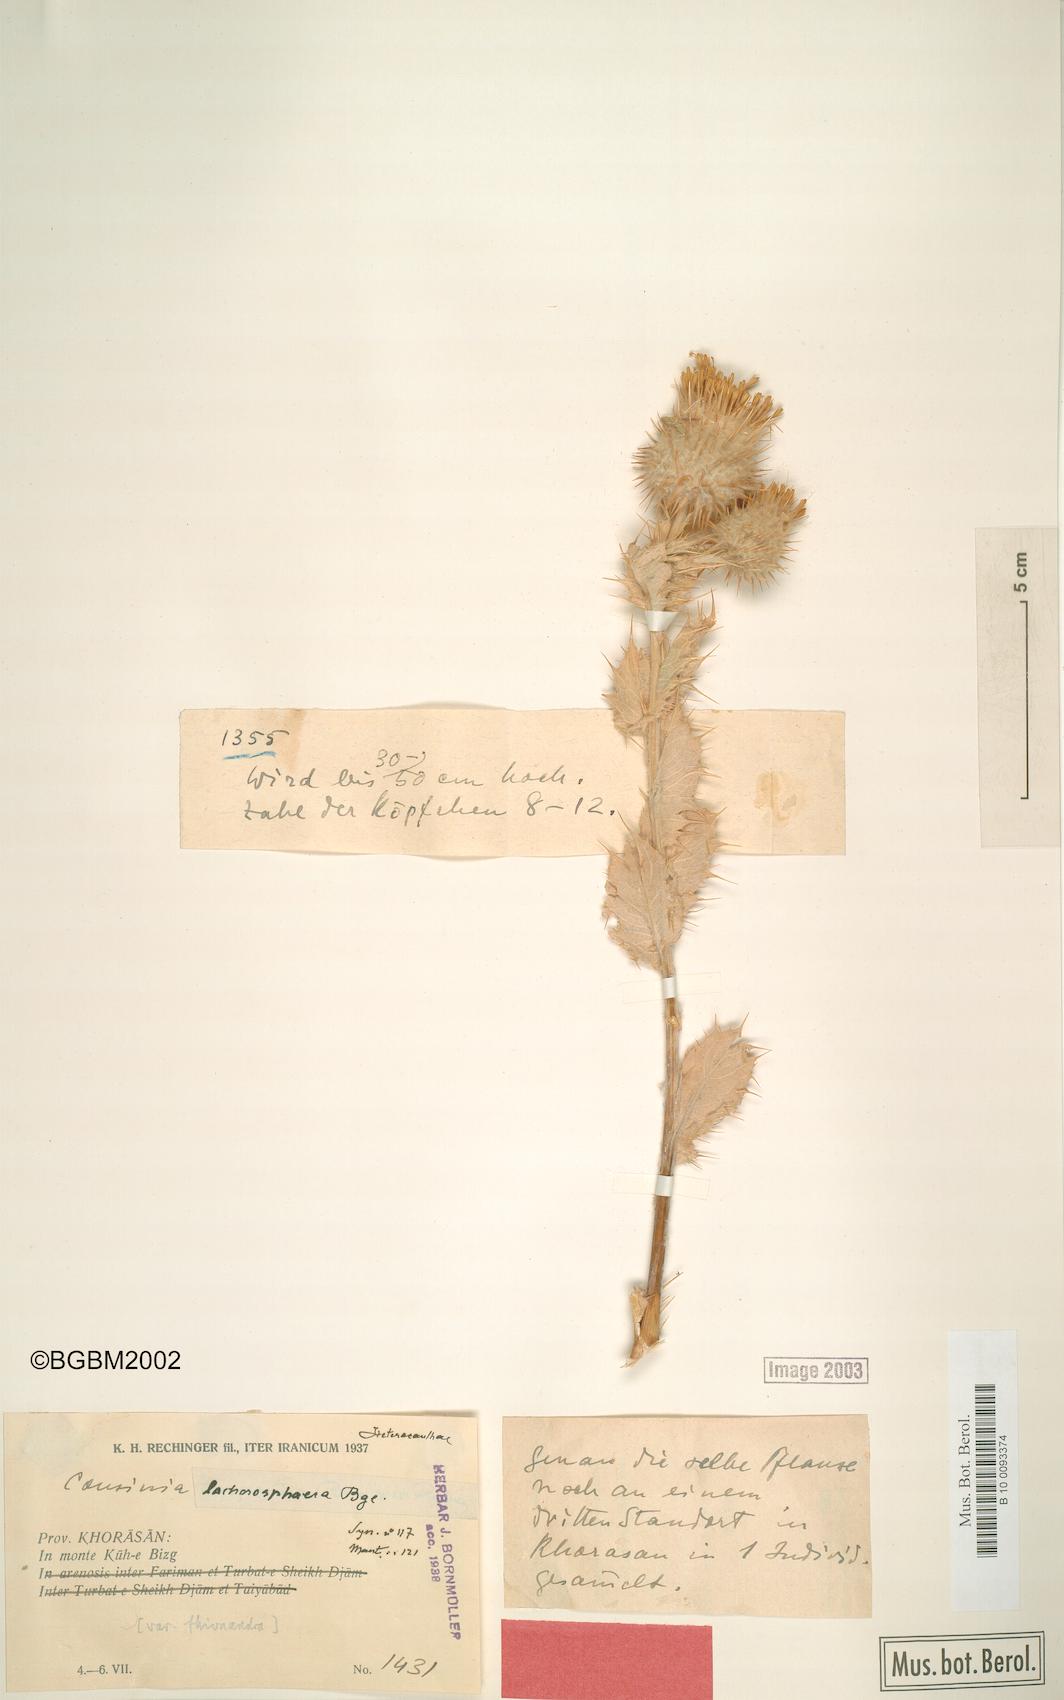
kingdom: Plantae
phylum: Tracheophyta
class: Magnoliopsida
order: Asterales
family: Asteraceae
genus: Cousinia
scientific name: Cousinia lachnosphaera
